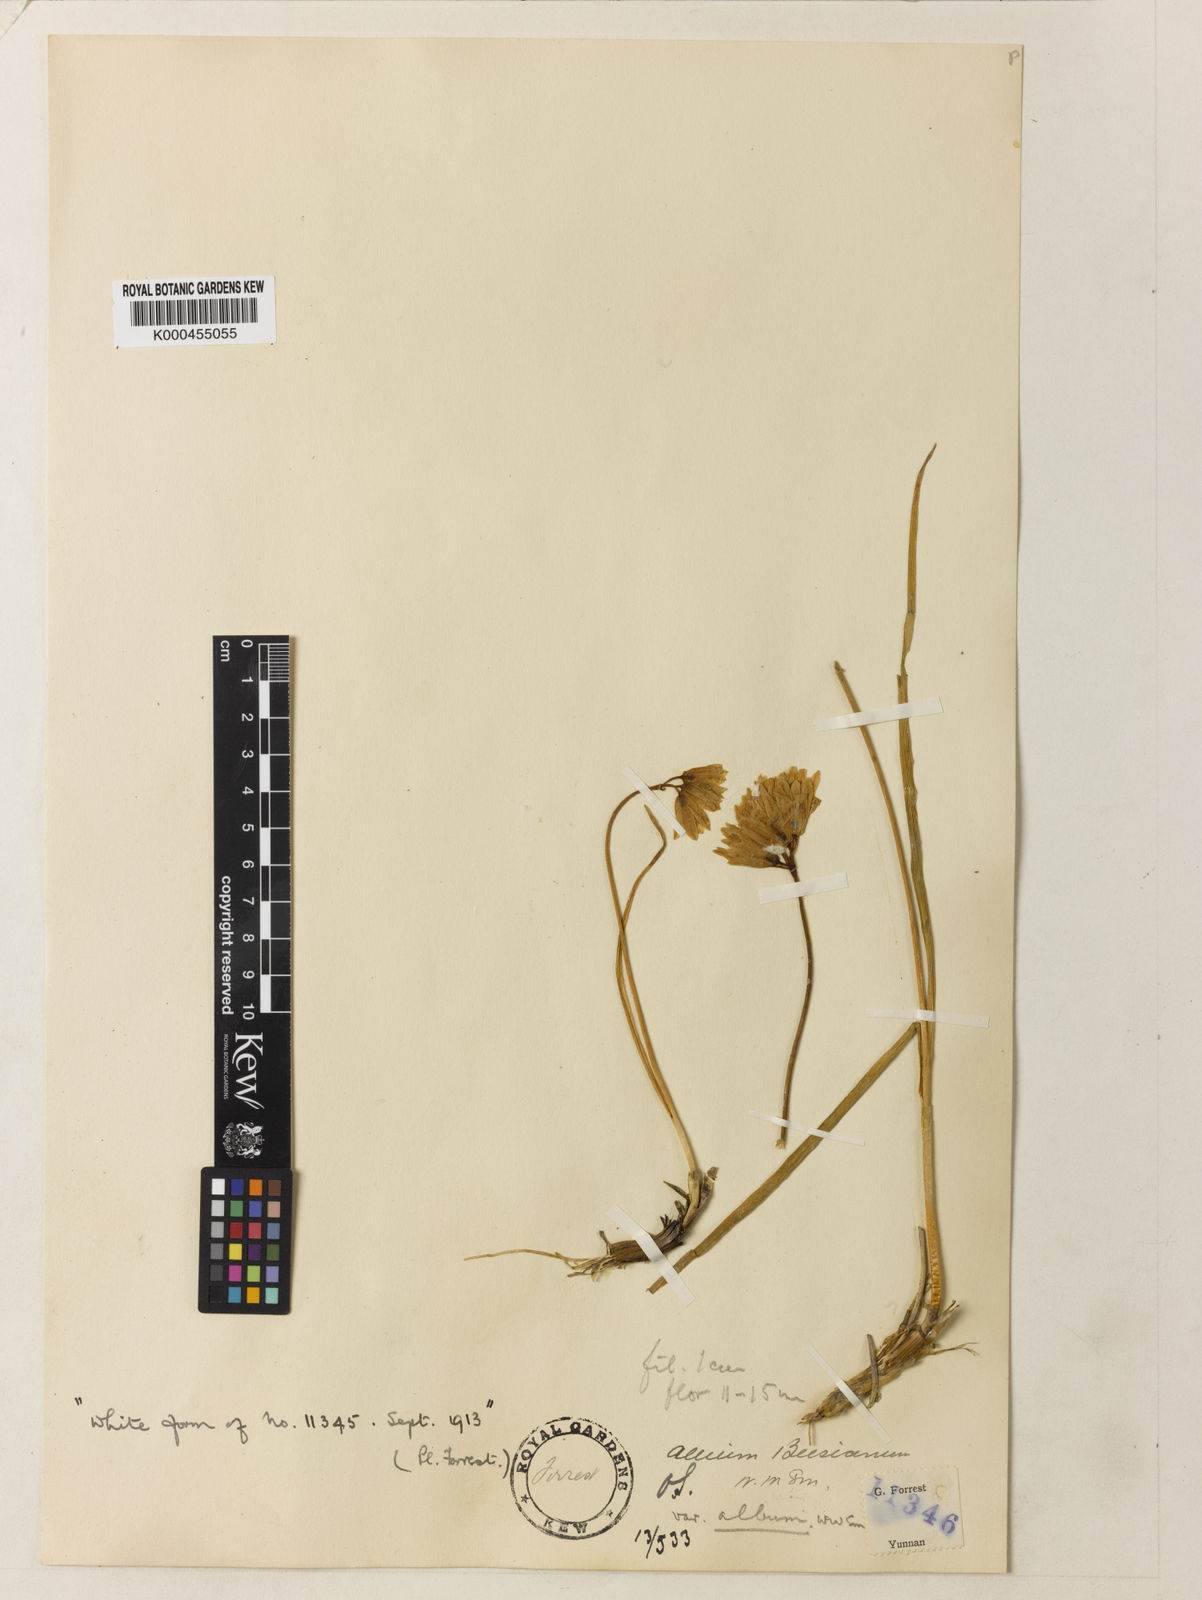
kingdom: Plantae
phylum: Tracheophyta
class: Liliopsida
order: Asparagales
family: Amaryllidaceae
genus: Allium
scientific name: Allium beesianum
